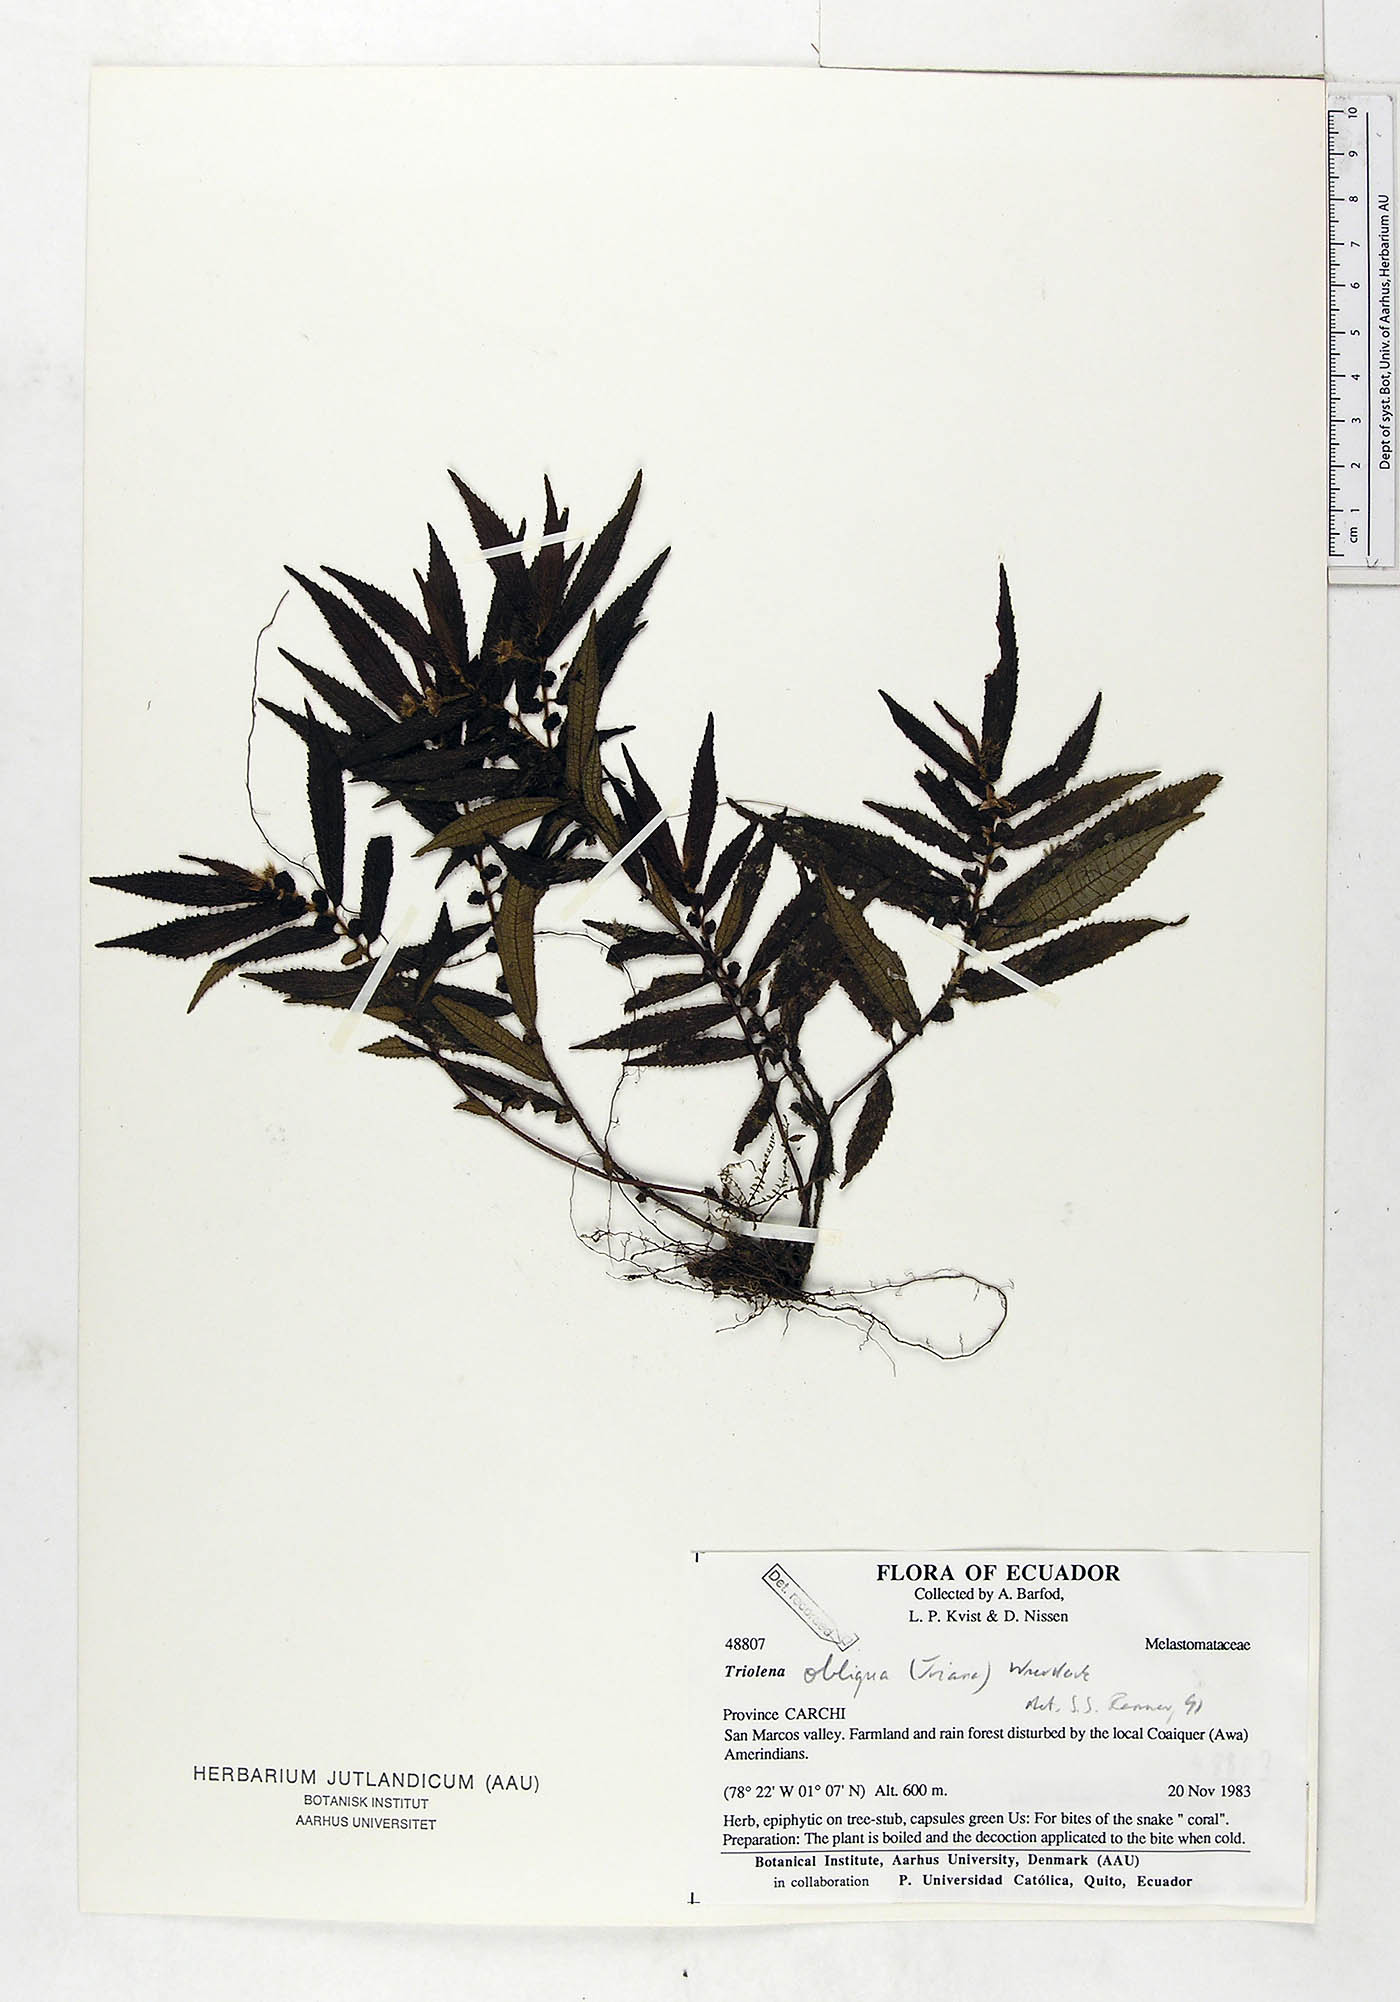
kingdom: Plantae
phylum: Tracheophyta
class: Magnoliopsida
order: Myrtales
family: Melastomataceae
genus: Triolena
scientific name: Triolena obliqua
